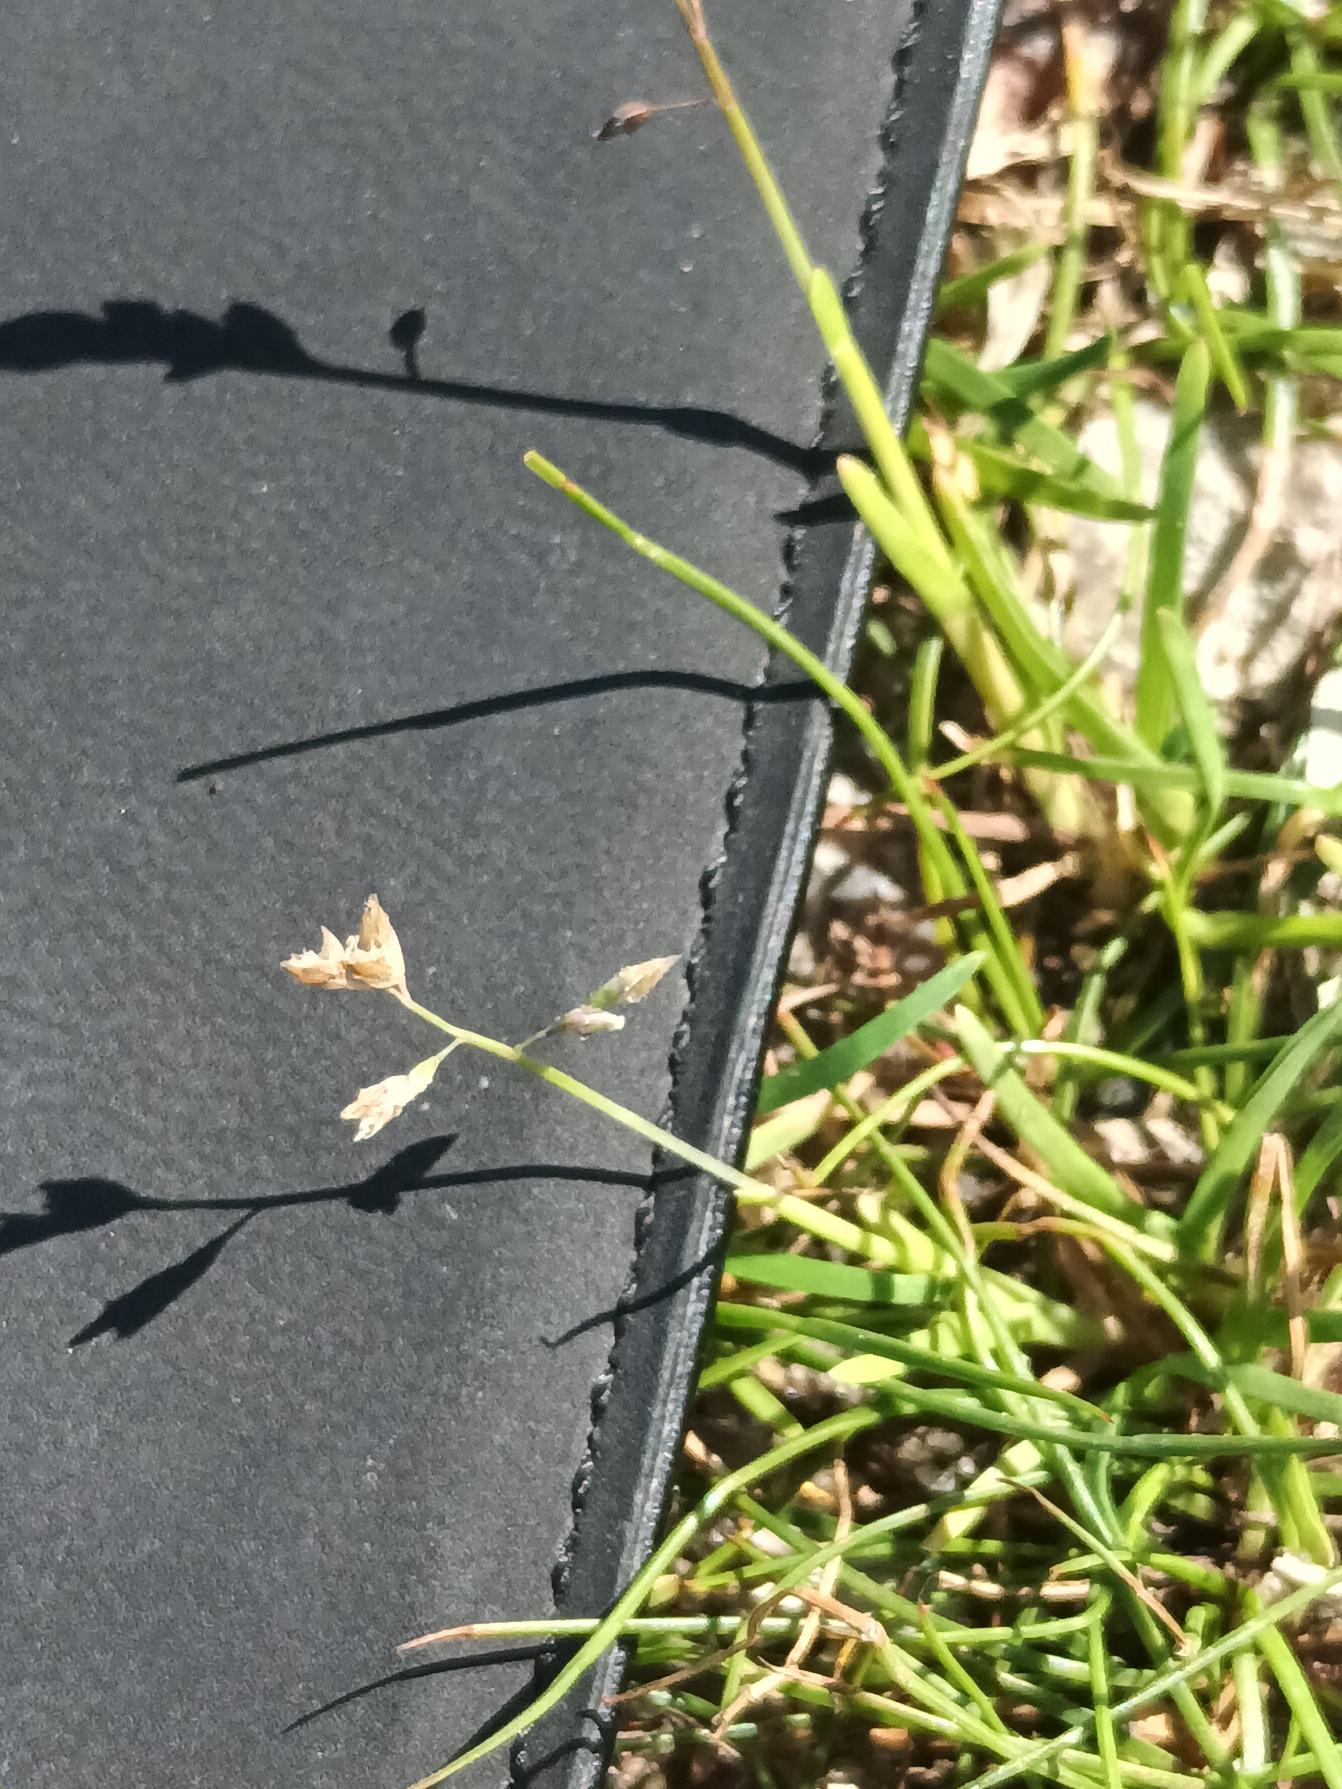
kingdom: Plantae
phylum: Tracheophyta
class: Liliopsida
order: Poales
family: Poaceae
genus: Poa
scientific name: Poa annua
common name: Enårig rapgræs
